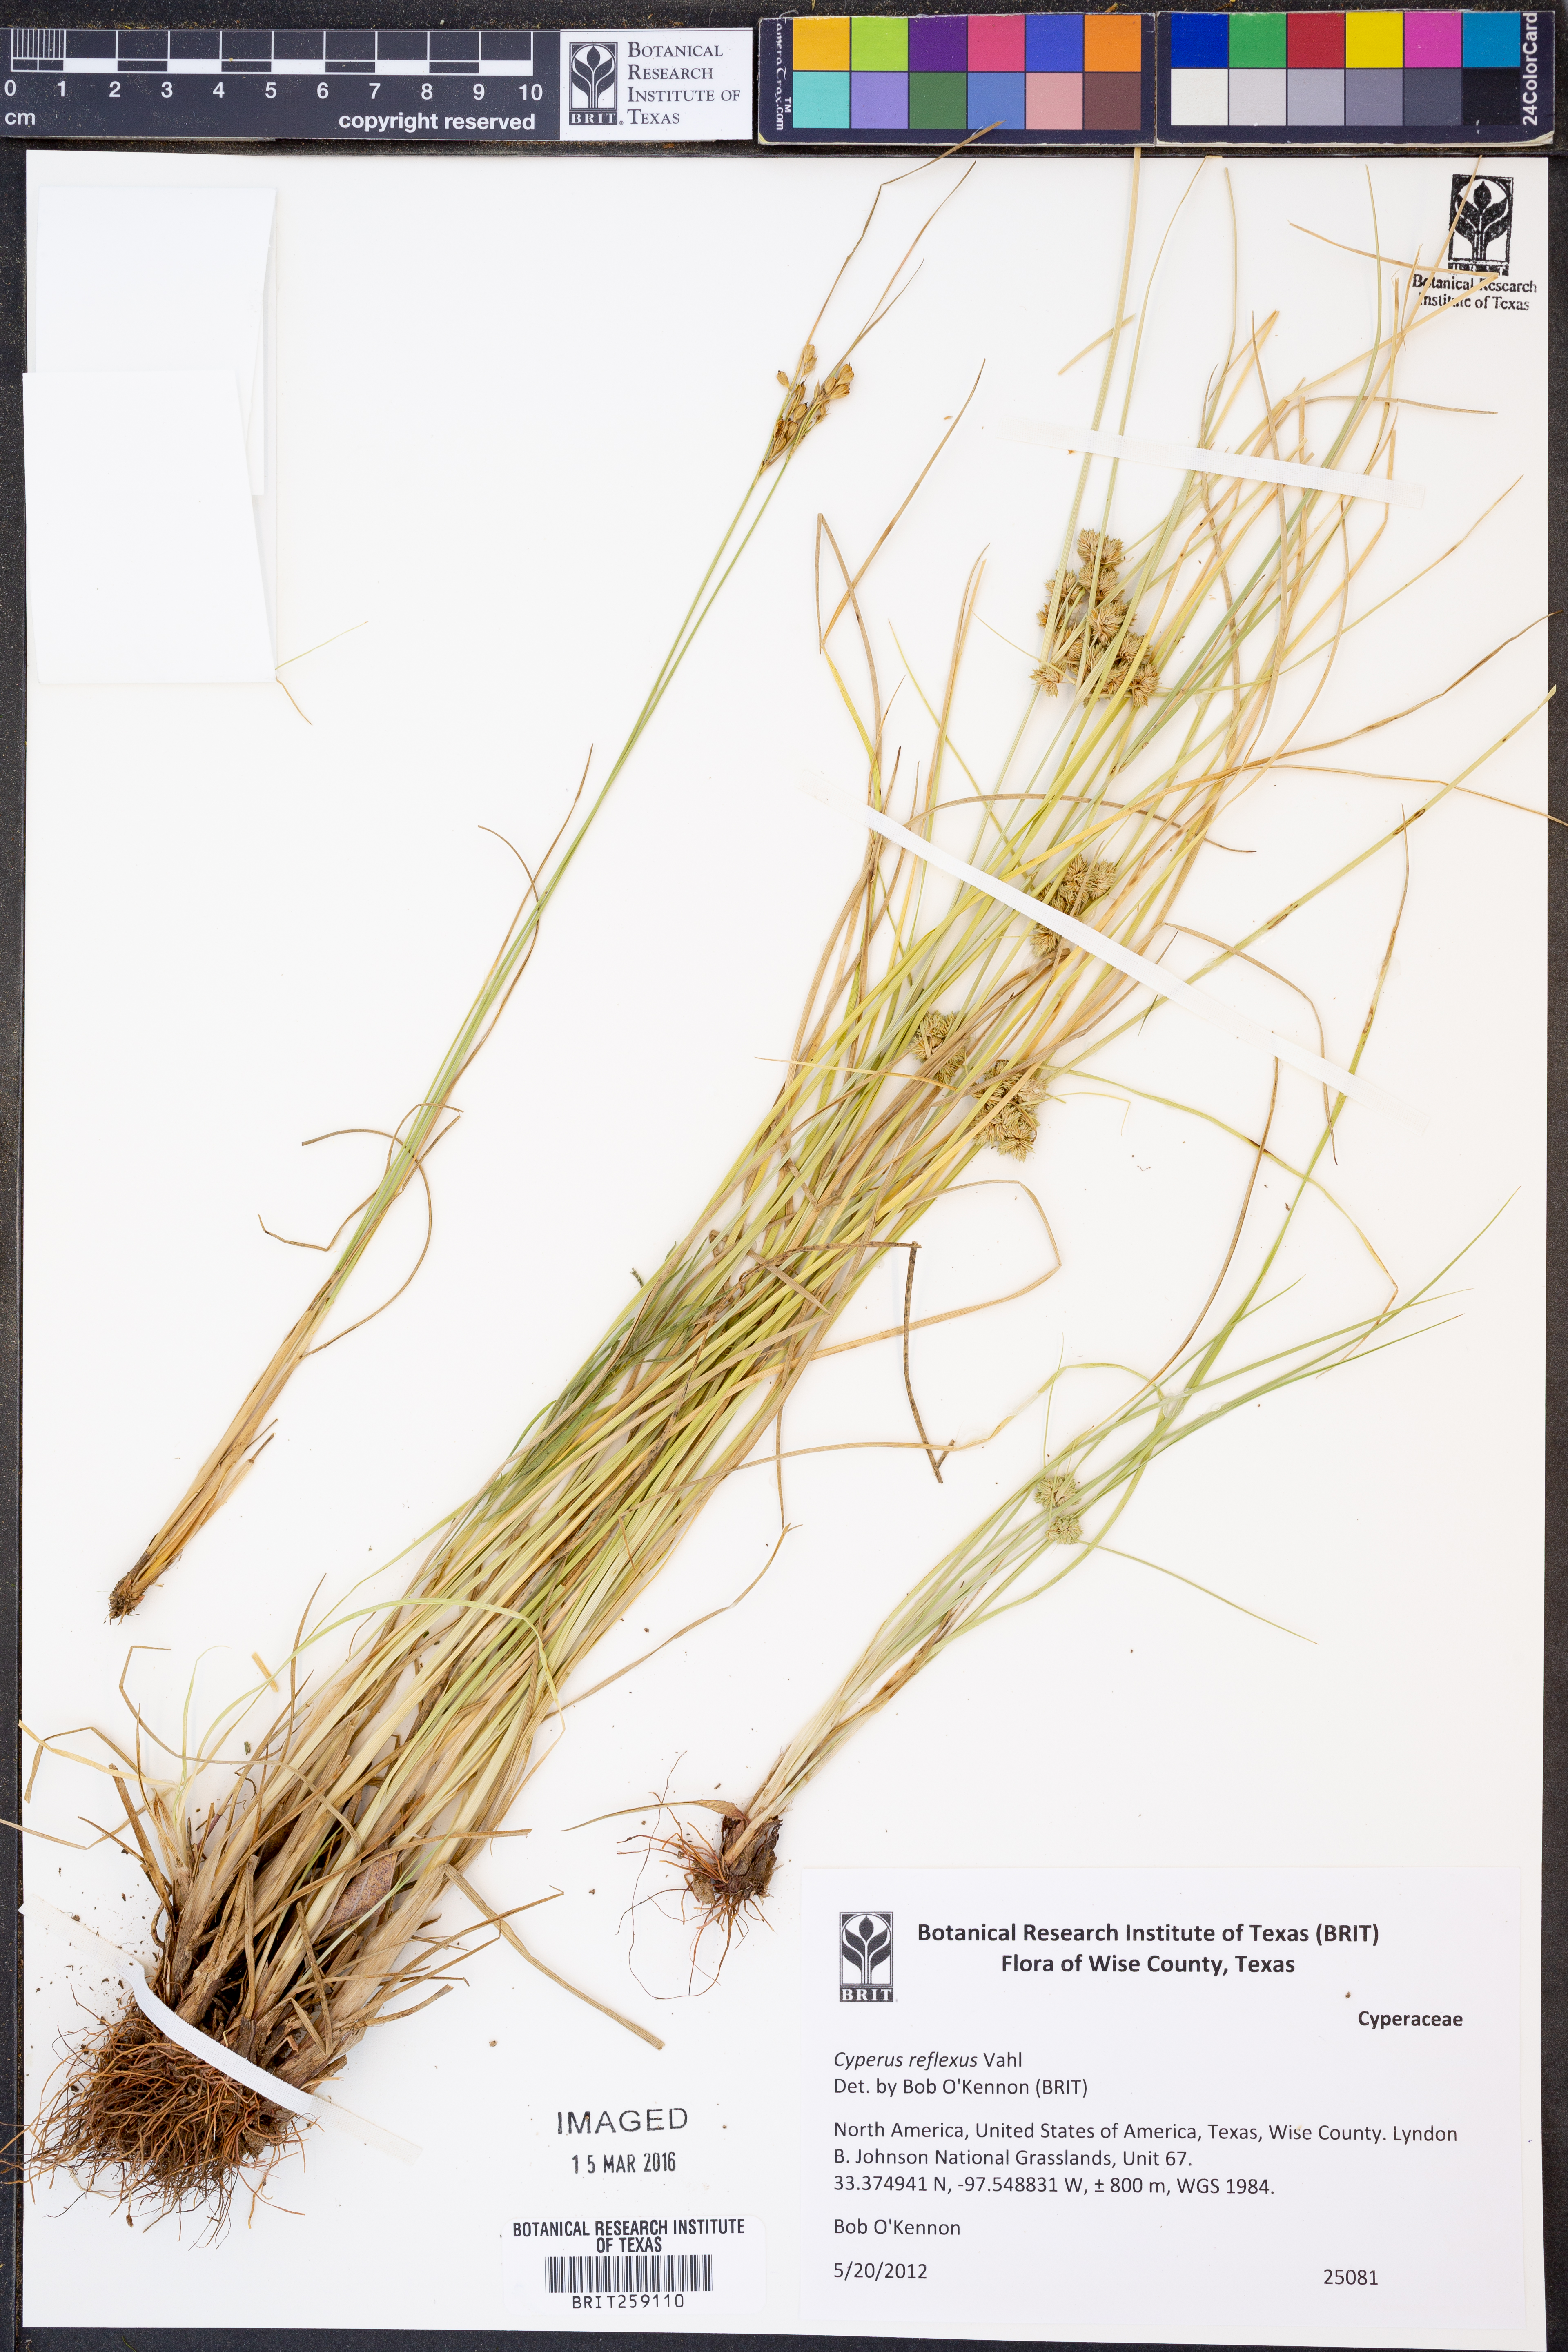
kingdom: Plantae
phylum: Tracheophyta
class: Liliopsida
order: Poales
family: Cyperaceae
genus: Cyperus
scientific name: Cyperus reflexus
